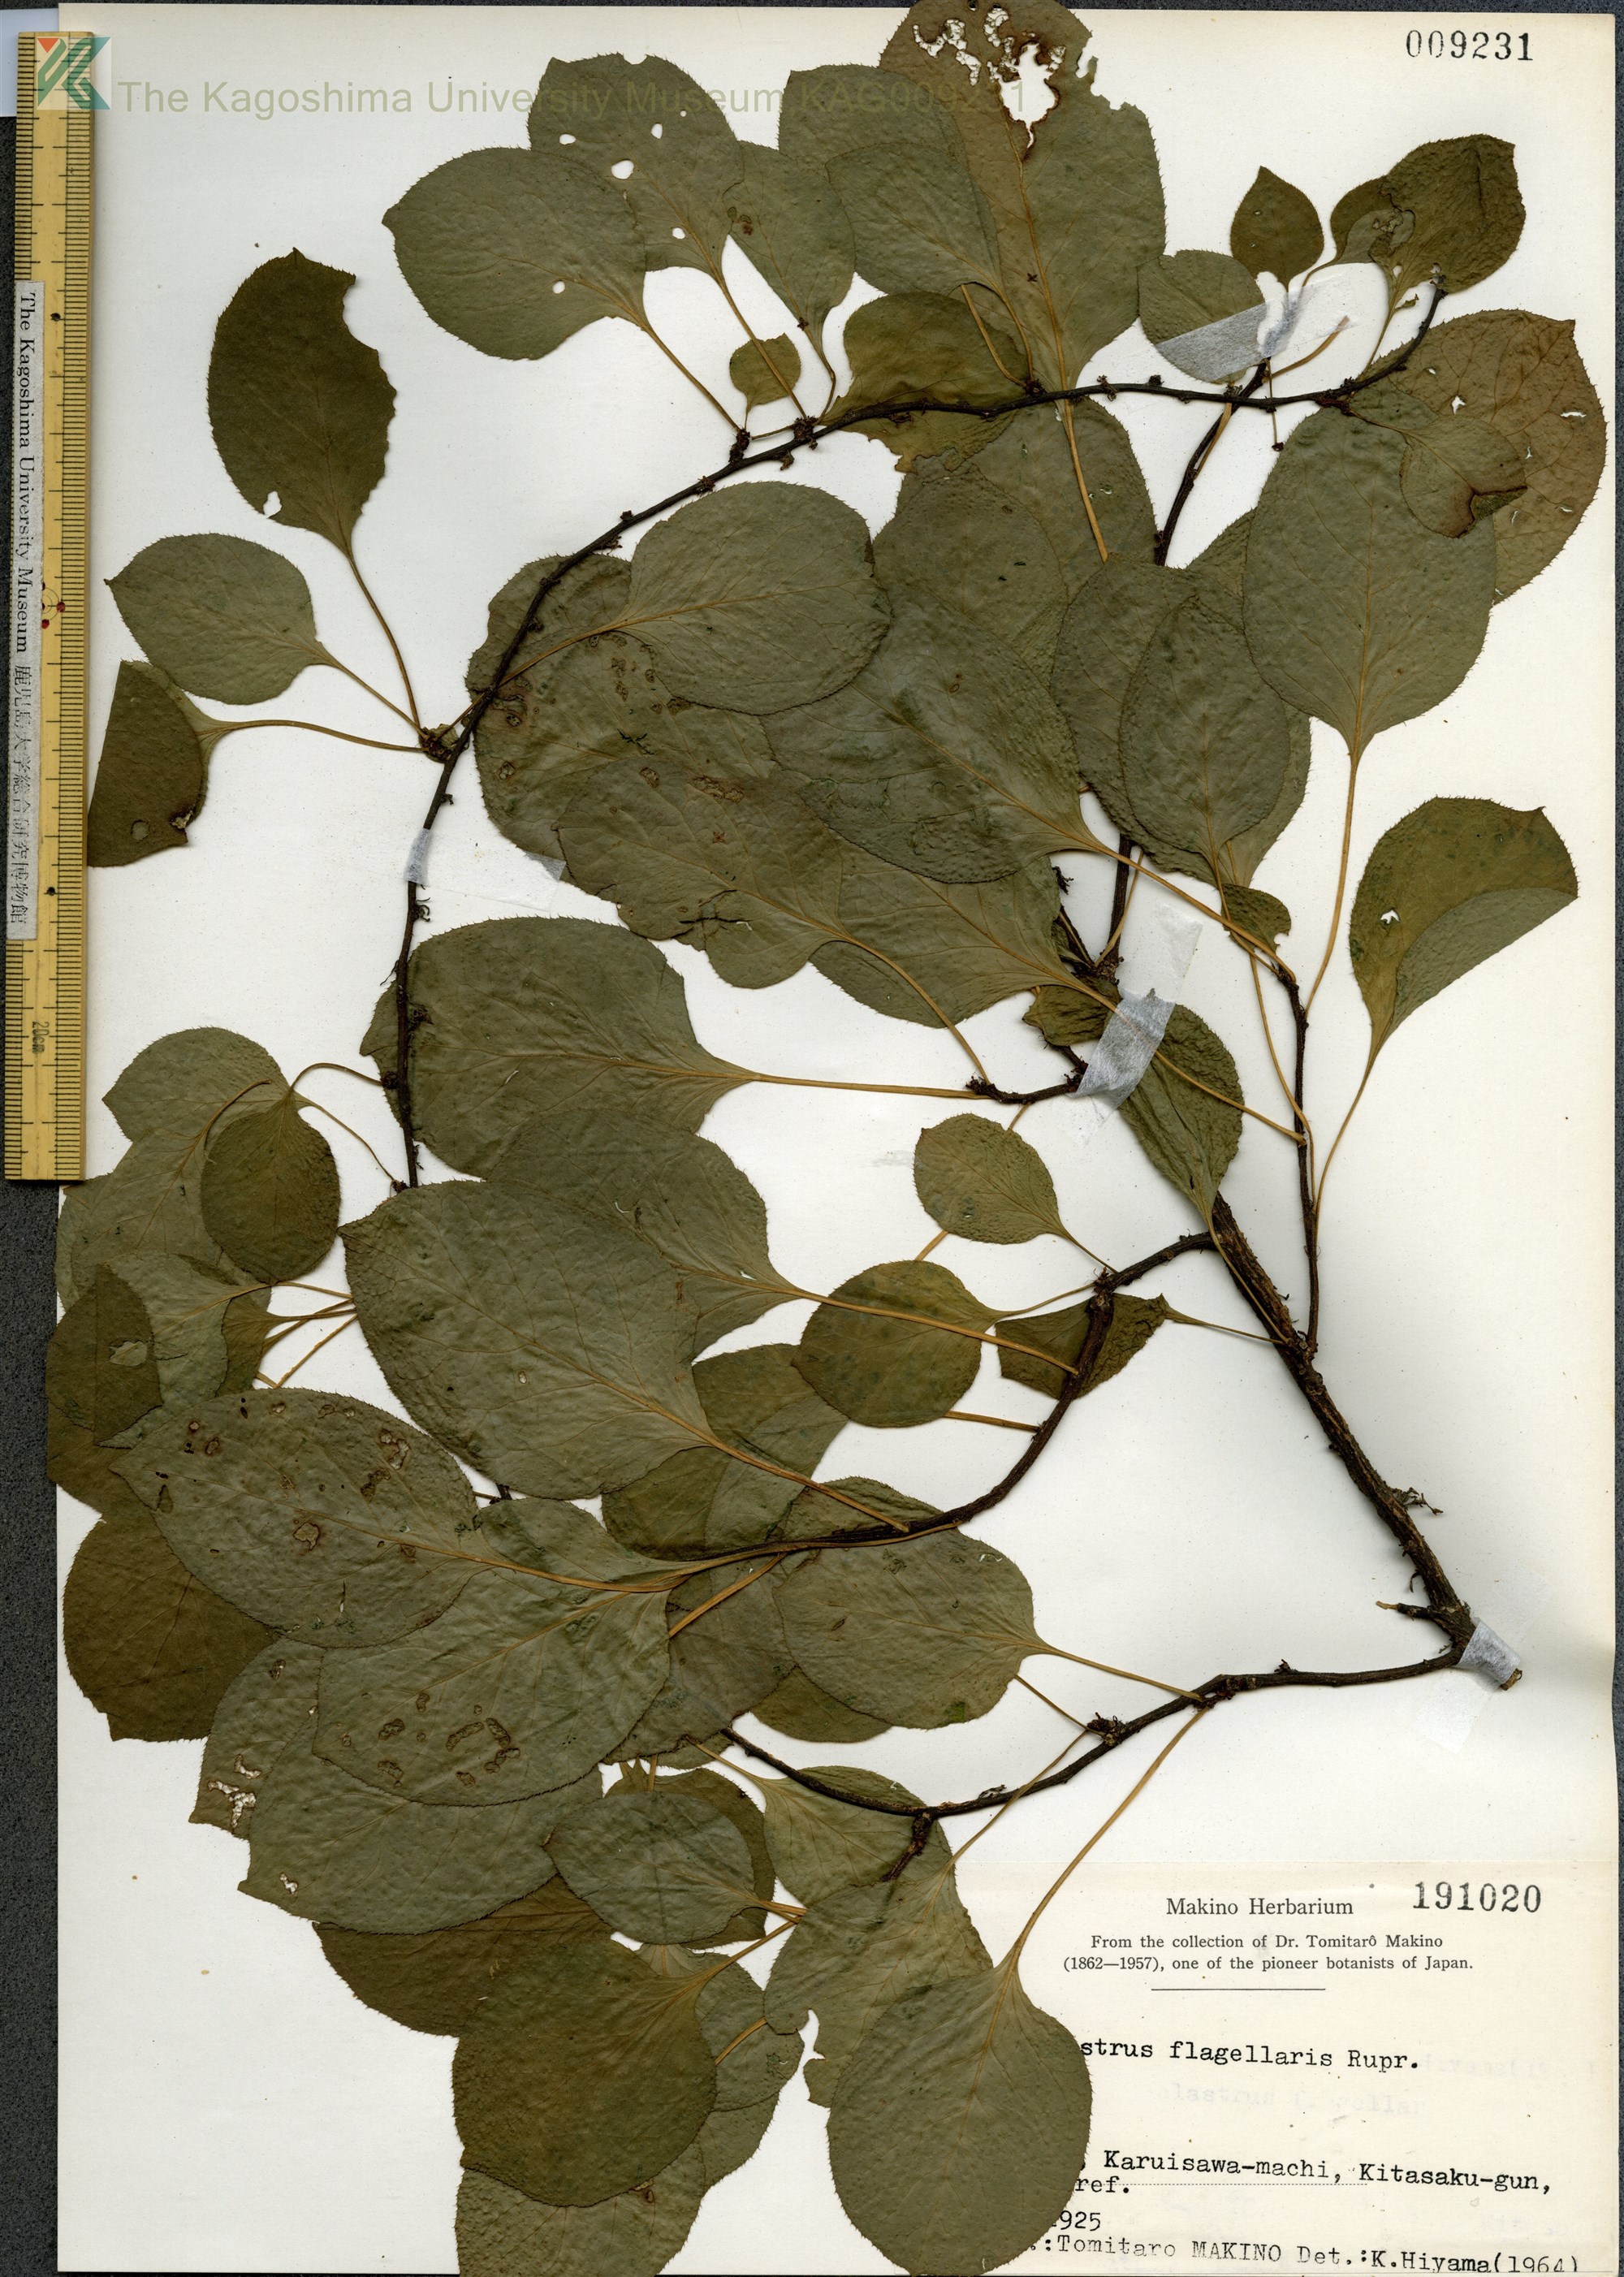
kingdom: Plantae
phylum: Tracheophyta
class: Magnoliopsida
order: Celastrales
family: Celastraceae
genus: Celastrus
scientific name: Celastrus flagellaris
